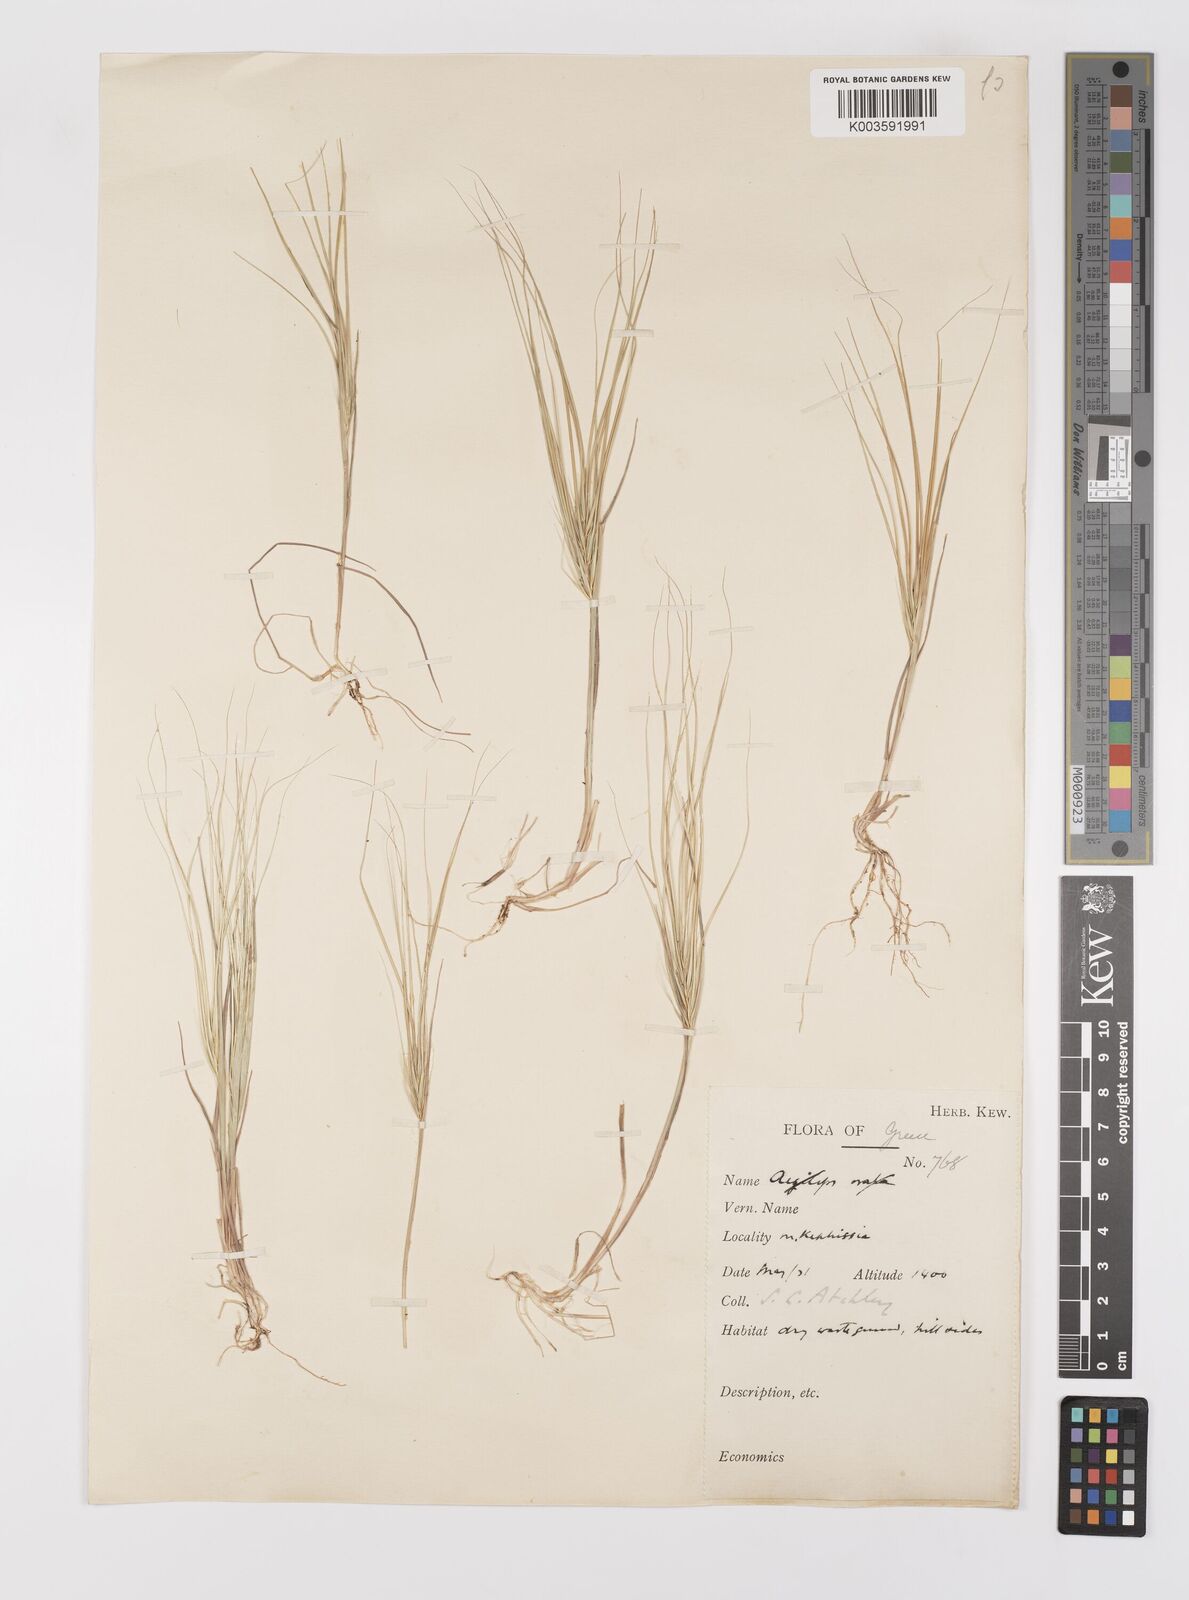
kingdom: Plantae
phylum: Tracheophyta
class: Liliopsida
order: Poales
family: Poaceae
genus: Taeniatherum
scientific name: Taeniatherum caput-medusae
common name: Medusahead
